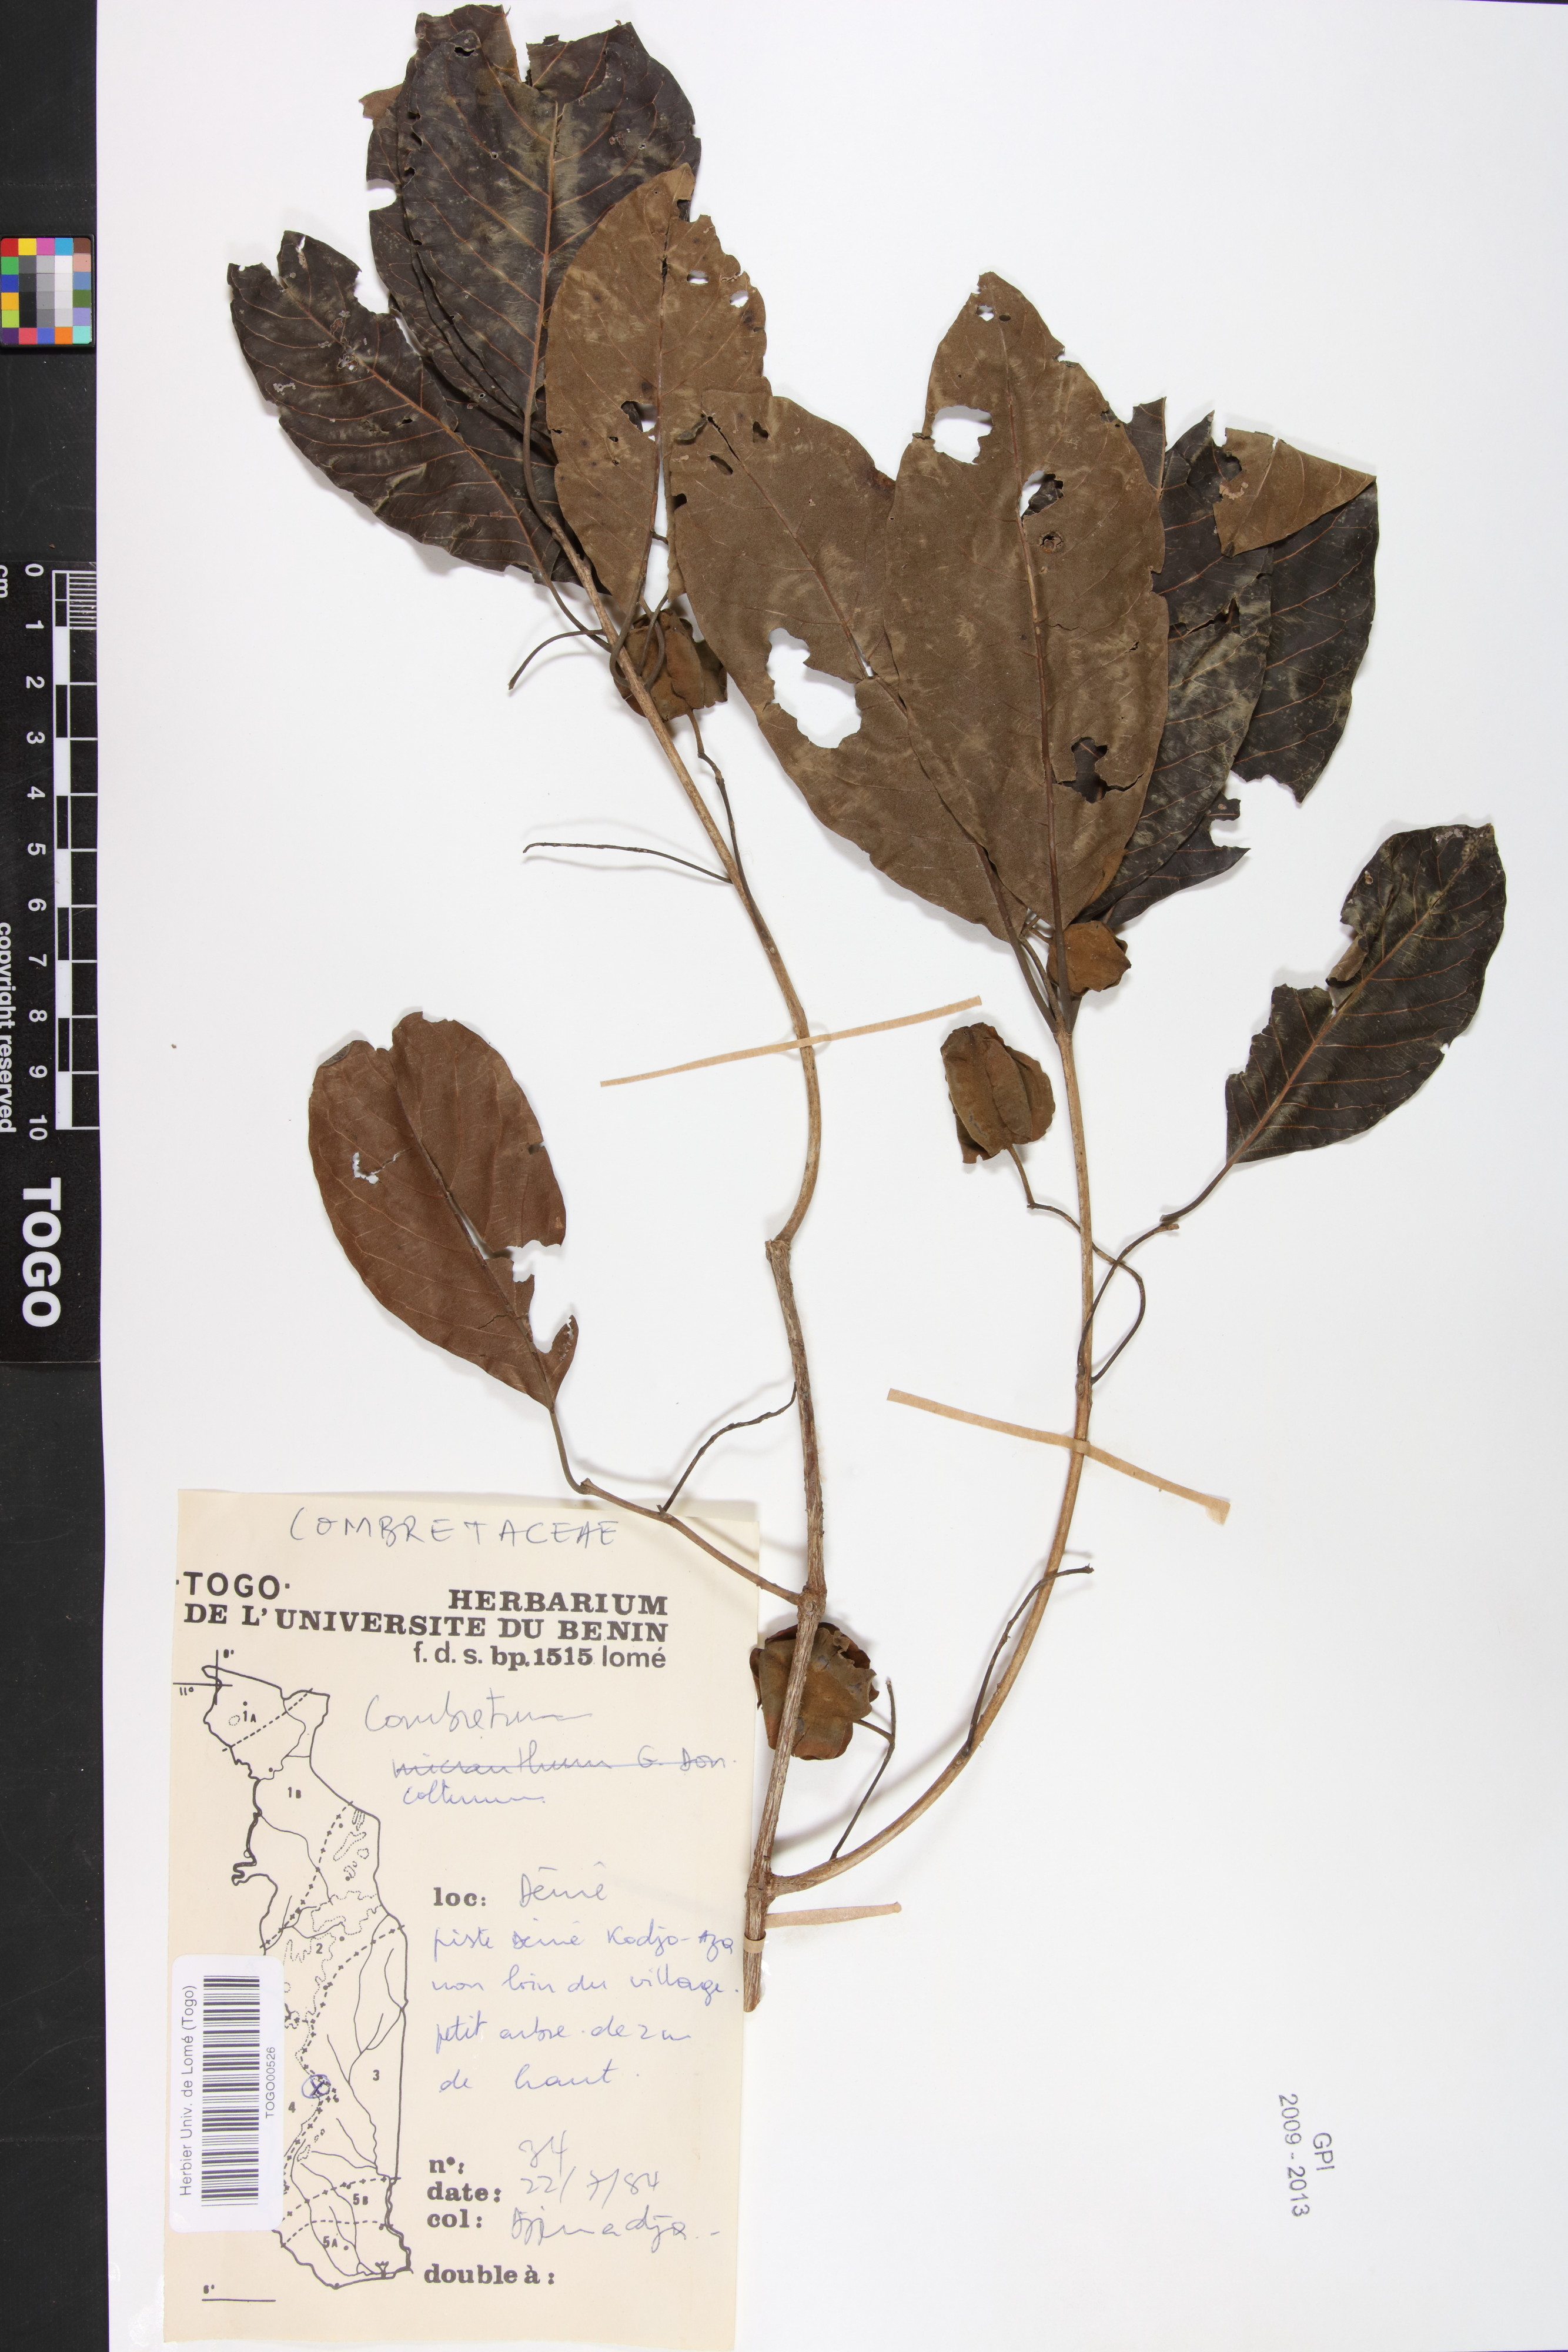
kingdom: Plantae
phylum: Tracheophyta
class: Magnoliopsida
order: Myrtales
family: Combretaceae
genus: Combretum
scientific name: Combretum collinum
